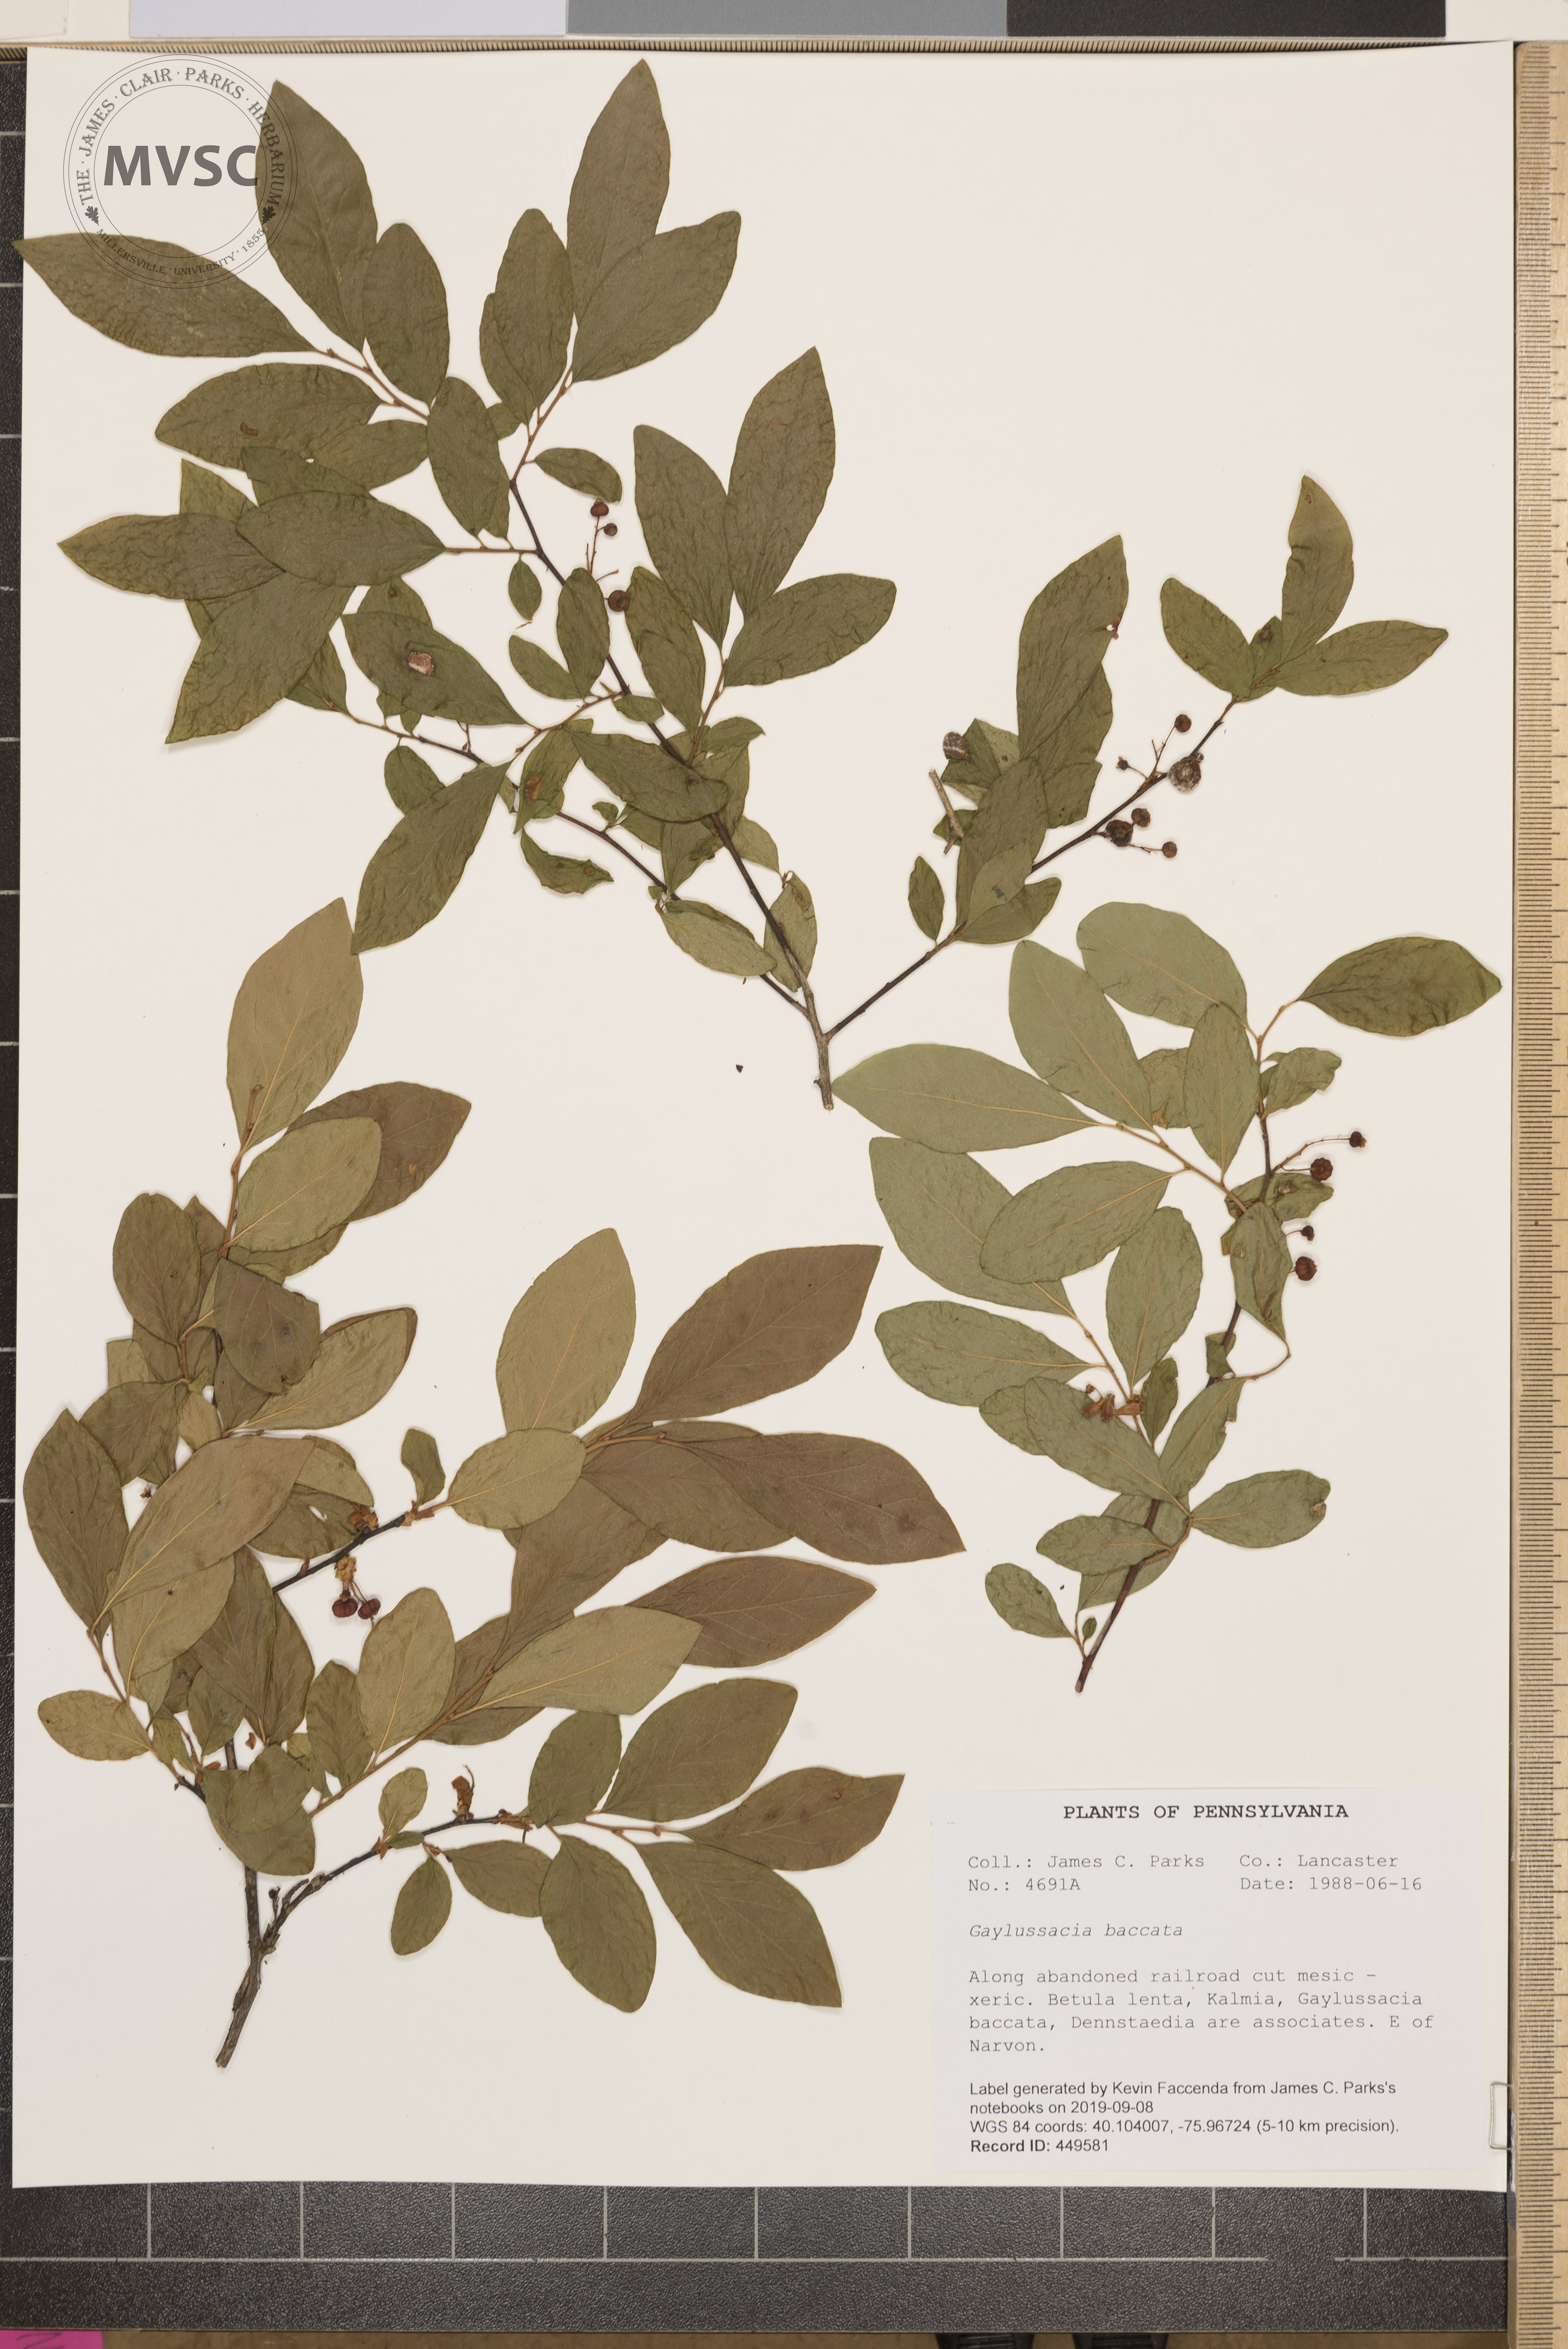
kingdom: Plantae
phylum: Tracheophyta
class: Magnoliopsida
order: Ericales
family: Ericaceae
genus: Gaylussacia
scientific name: Gaylussacia baccata
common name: Black huckleberry
